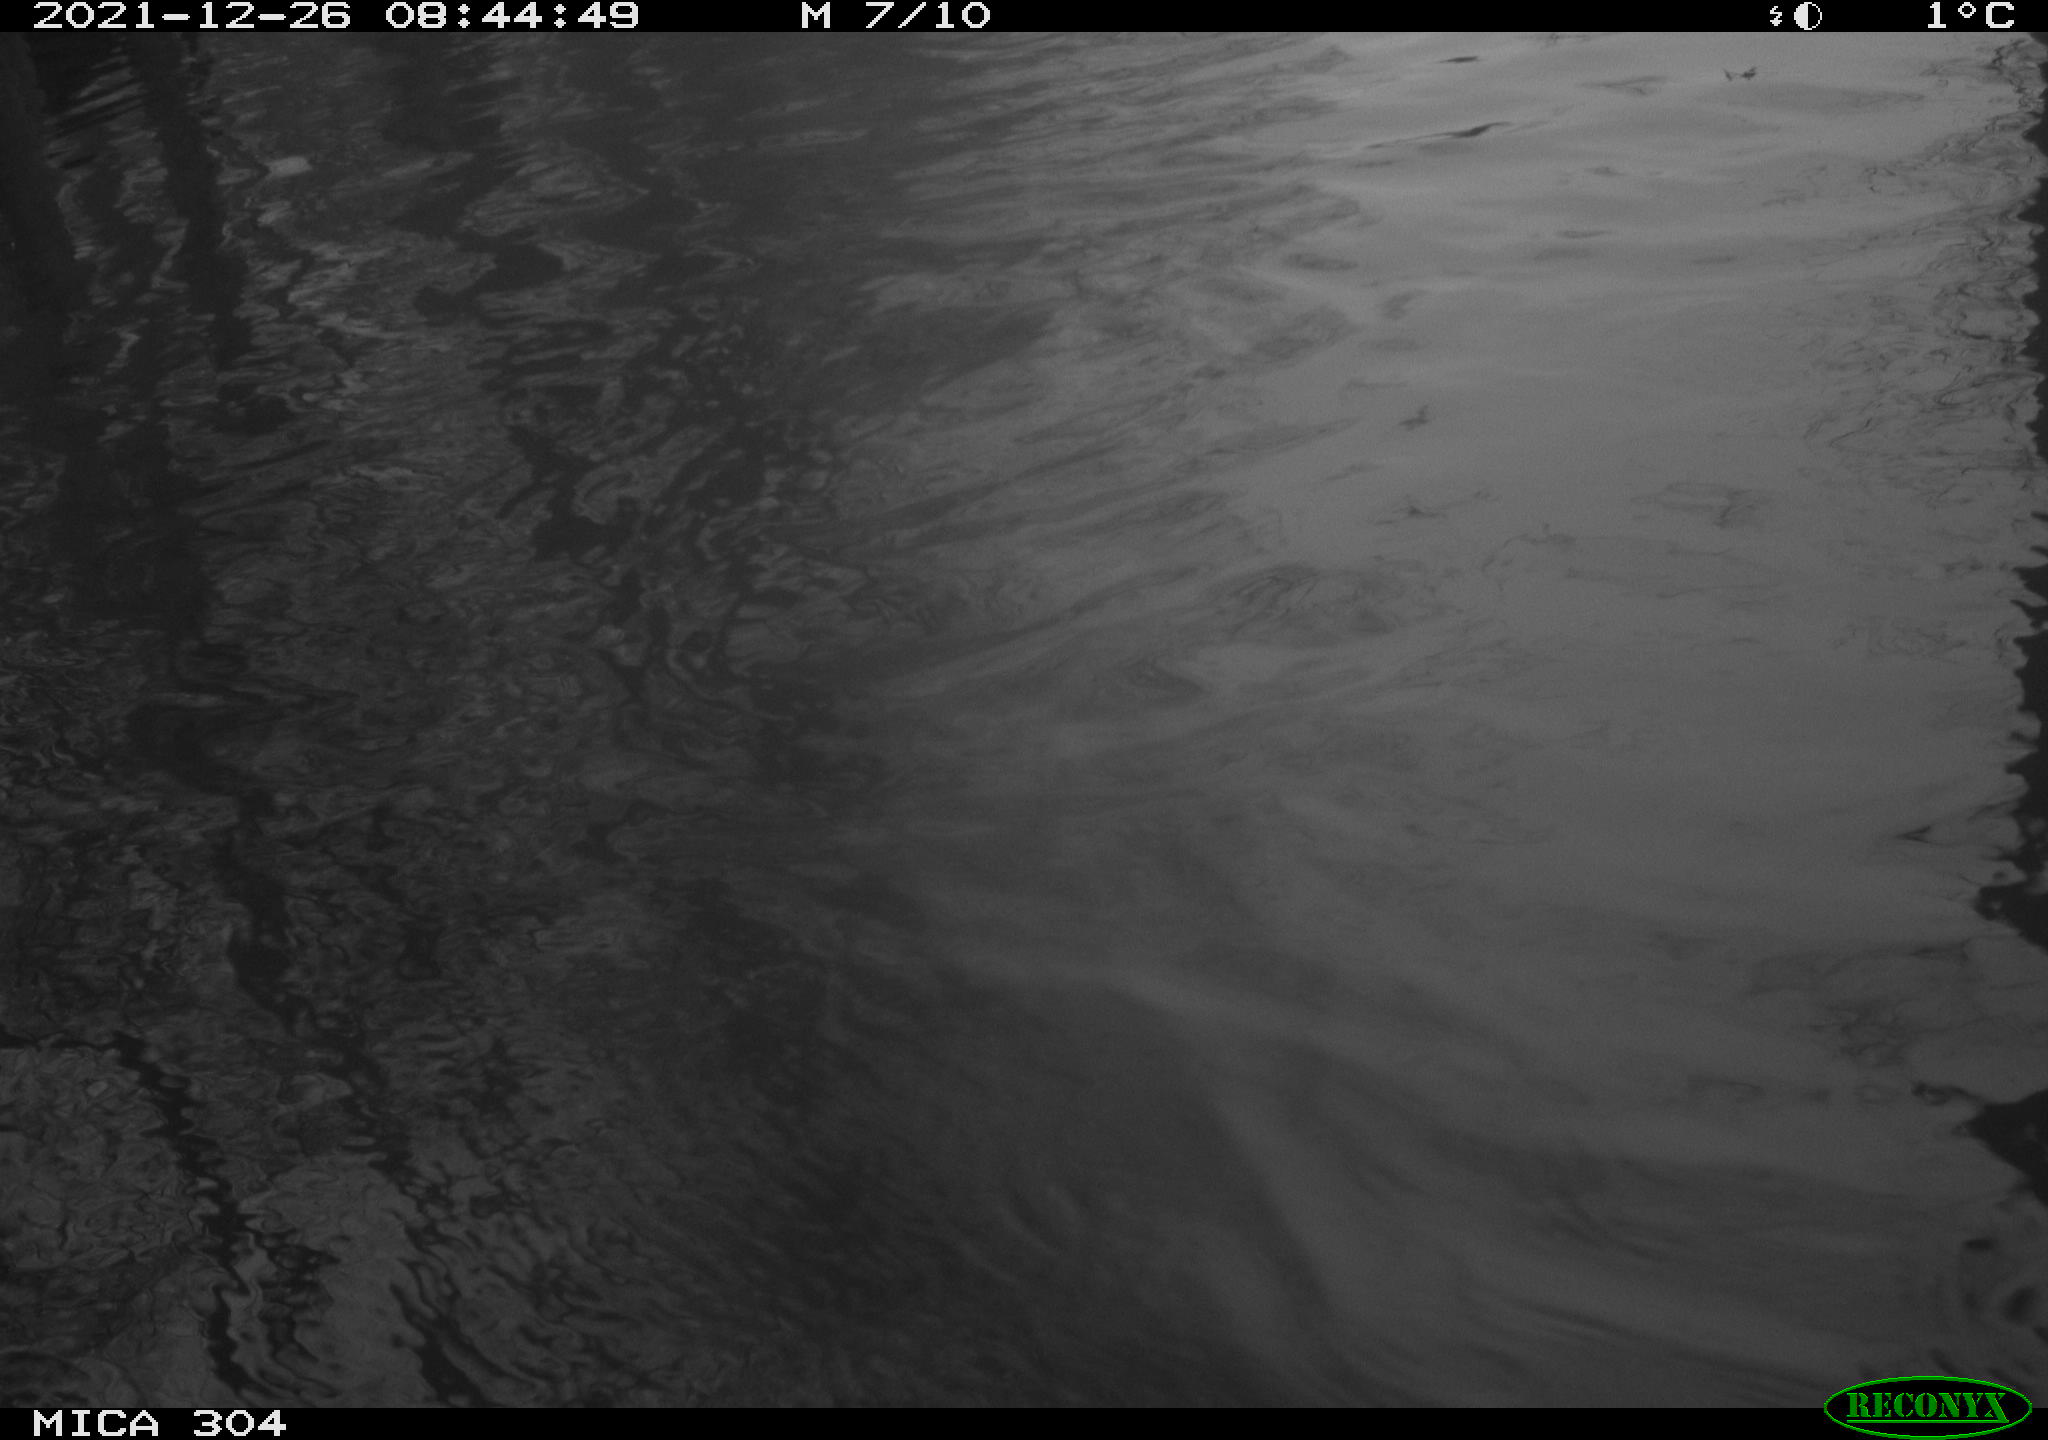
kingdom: Animalia
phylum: Chordata
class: Aves
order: Gruiformes
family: Rallidae
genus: Fulica
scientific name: Fulica atra
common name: Eurasian coot
